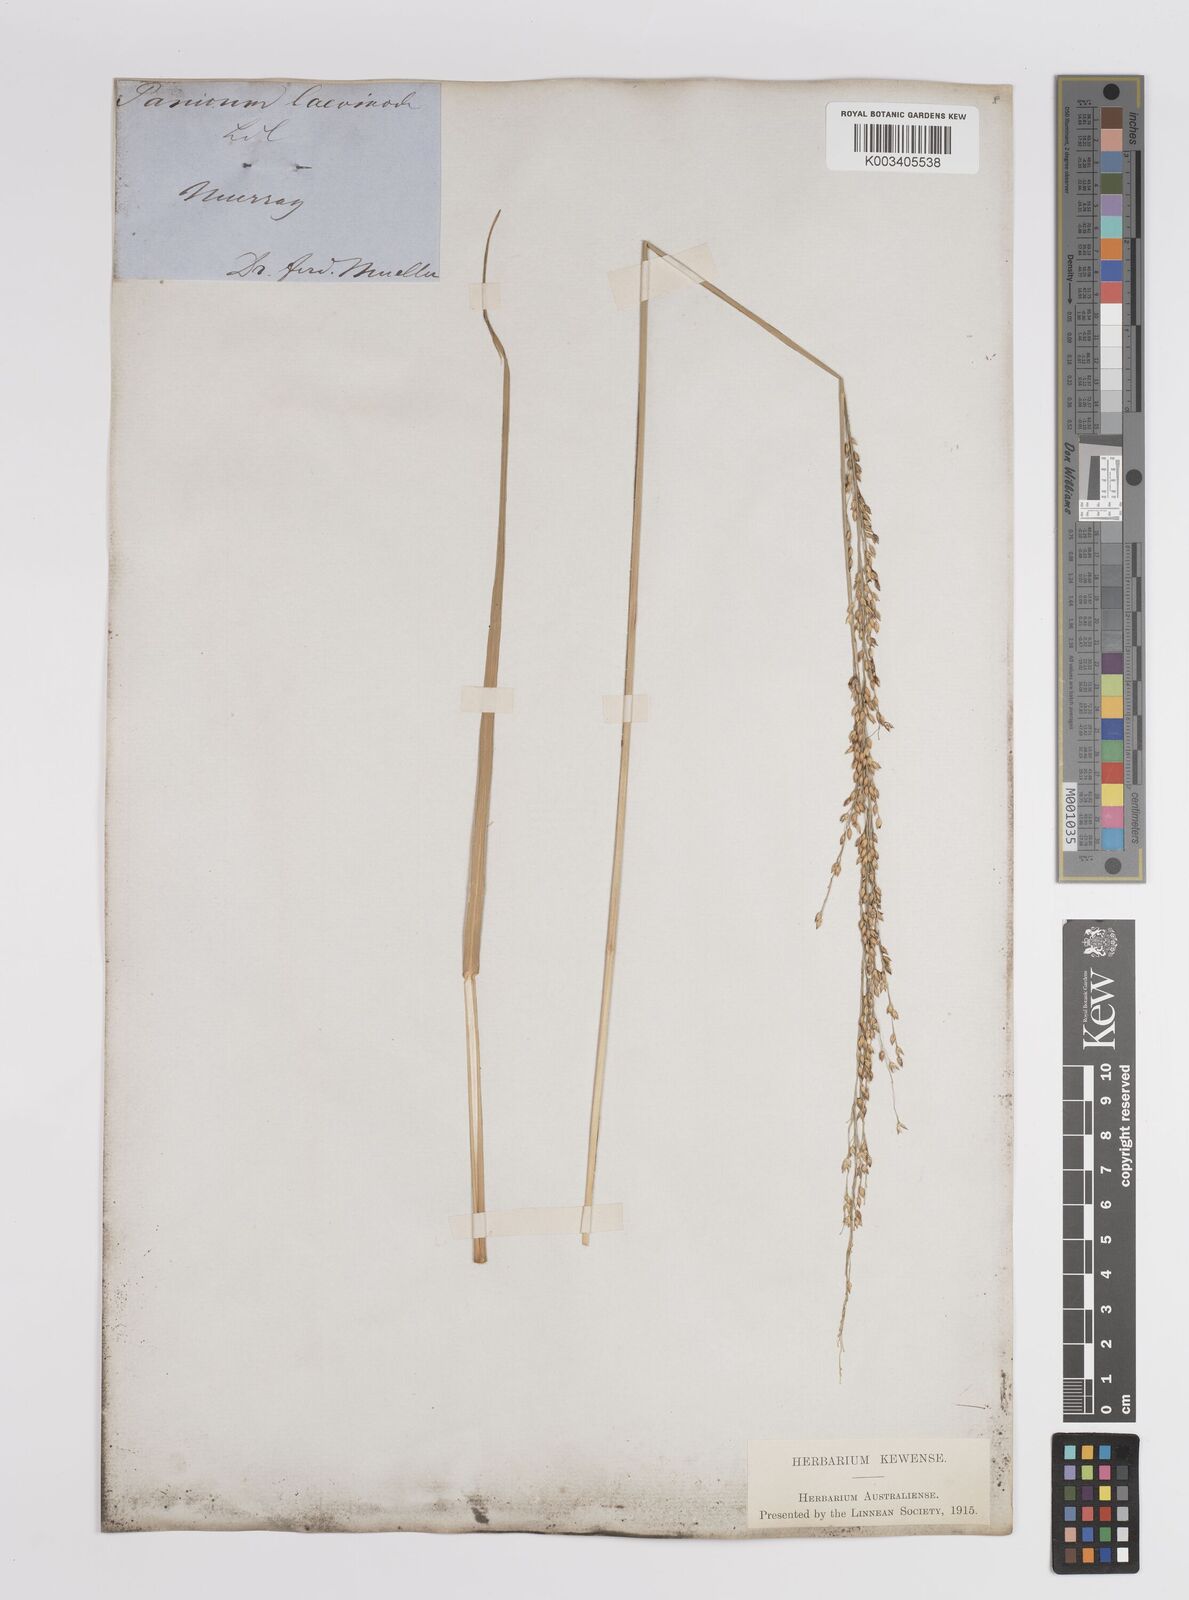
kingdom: Plantae
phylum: Tracheophyta
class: Liliopsida
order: Poales
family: Poaceae
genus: Panicum
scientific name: Panicum
